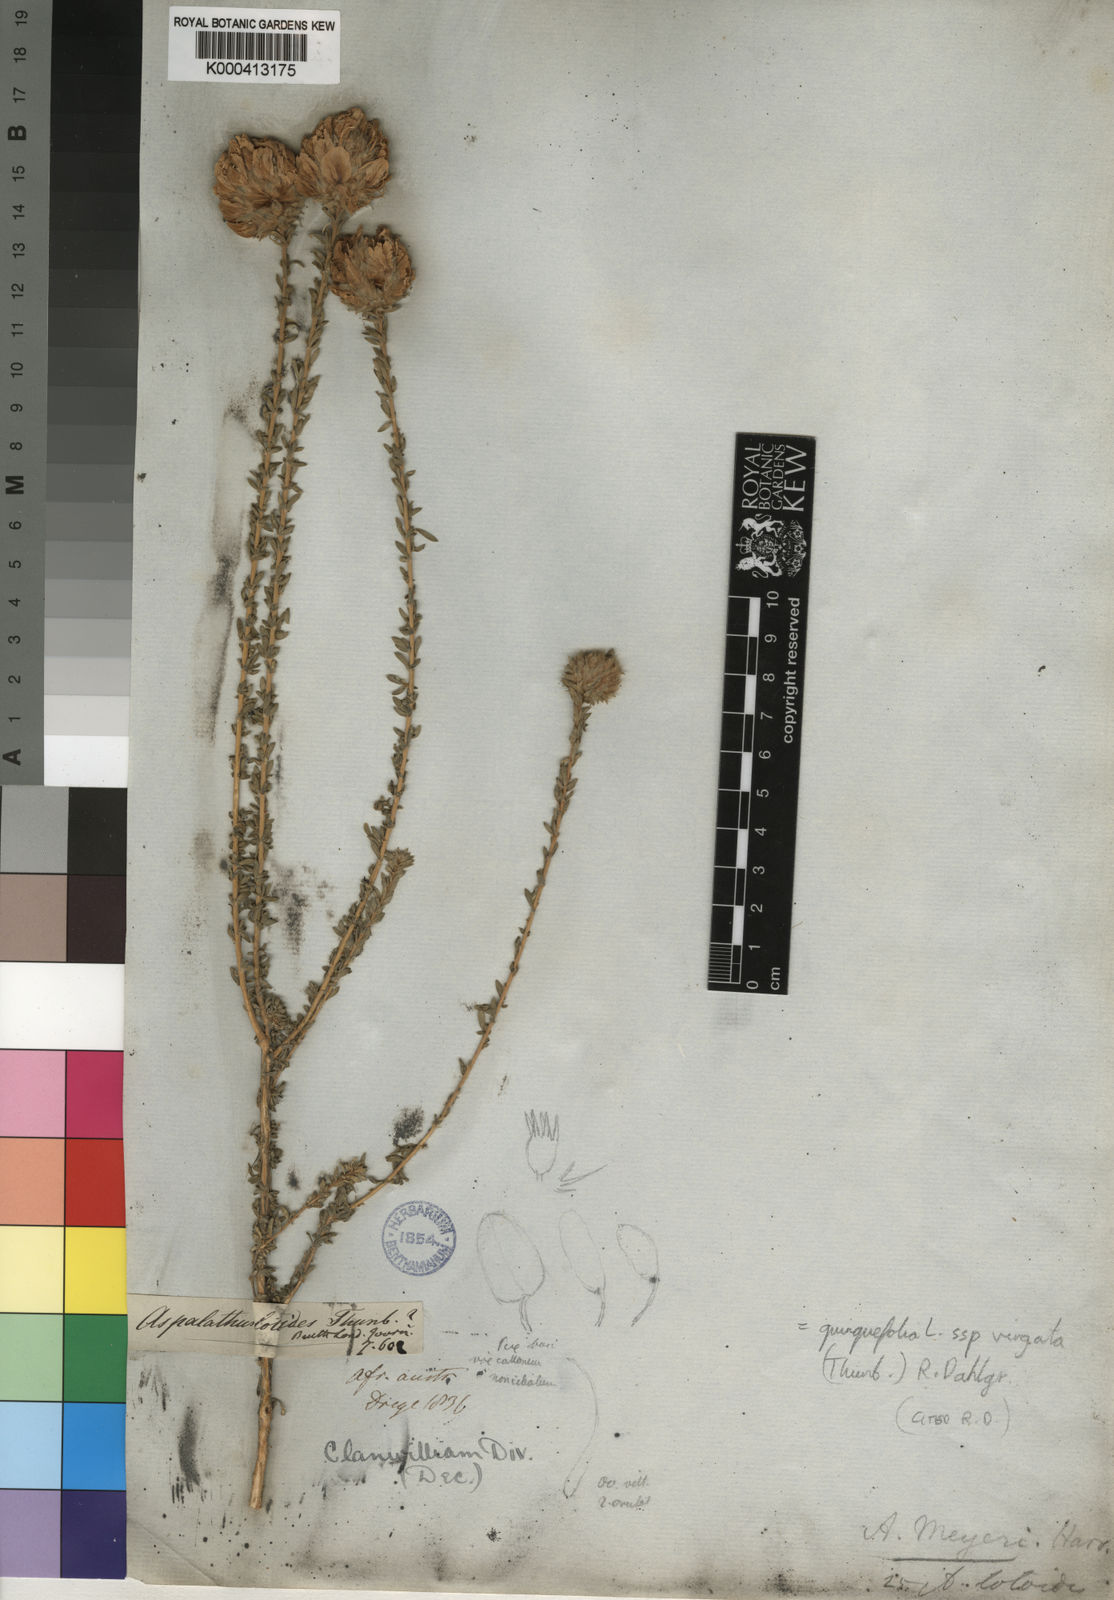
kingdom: Plantae
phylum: Tracheophyta
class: Magnoliopsida
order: Fabales
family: Fabaceae
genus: Aspalathus
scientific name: Aspalathus quinquefolia
